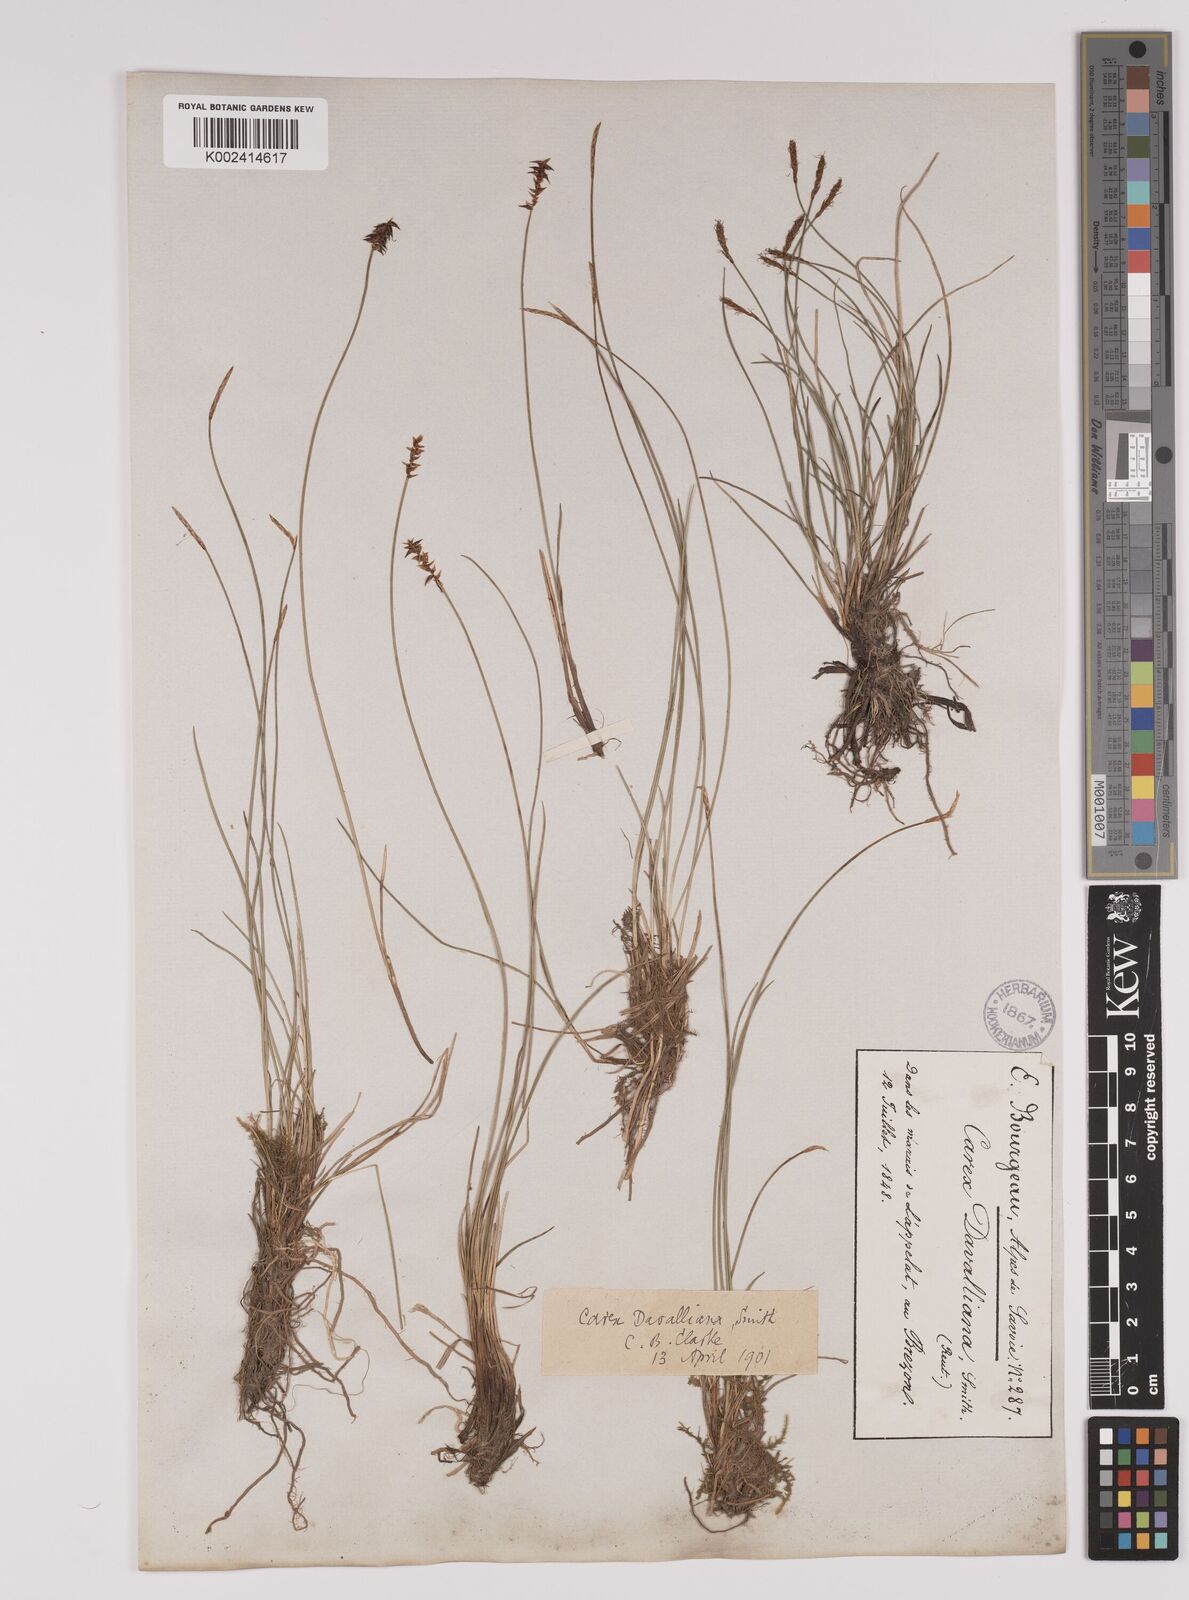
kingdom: Plantae
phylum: Tracheophyta
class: Liliopsida
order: Poales
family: Cyperaceae
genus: Carex
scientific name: Carex davalliana
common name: Davall's sedge
